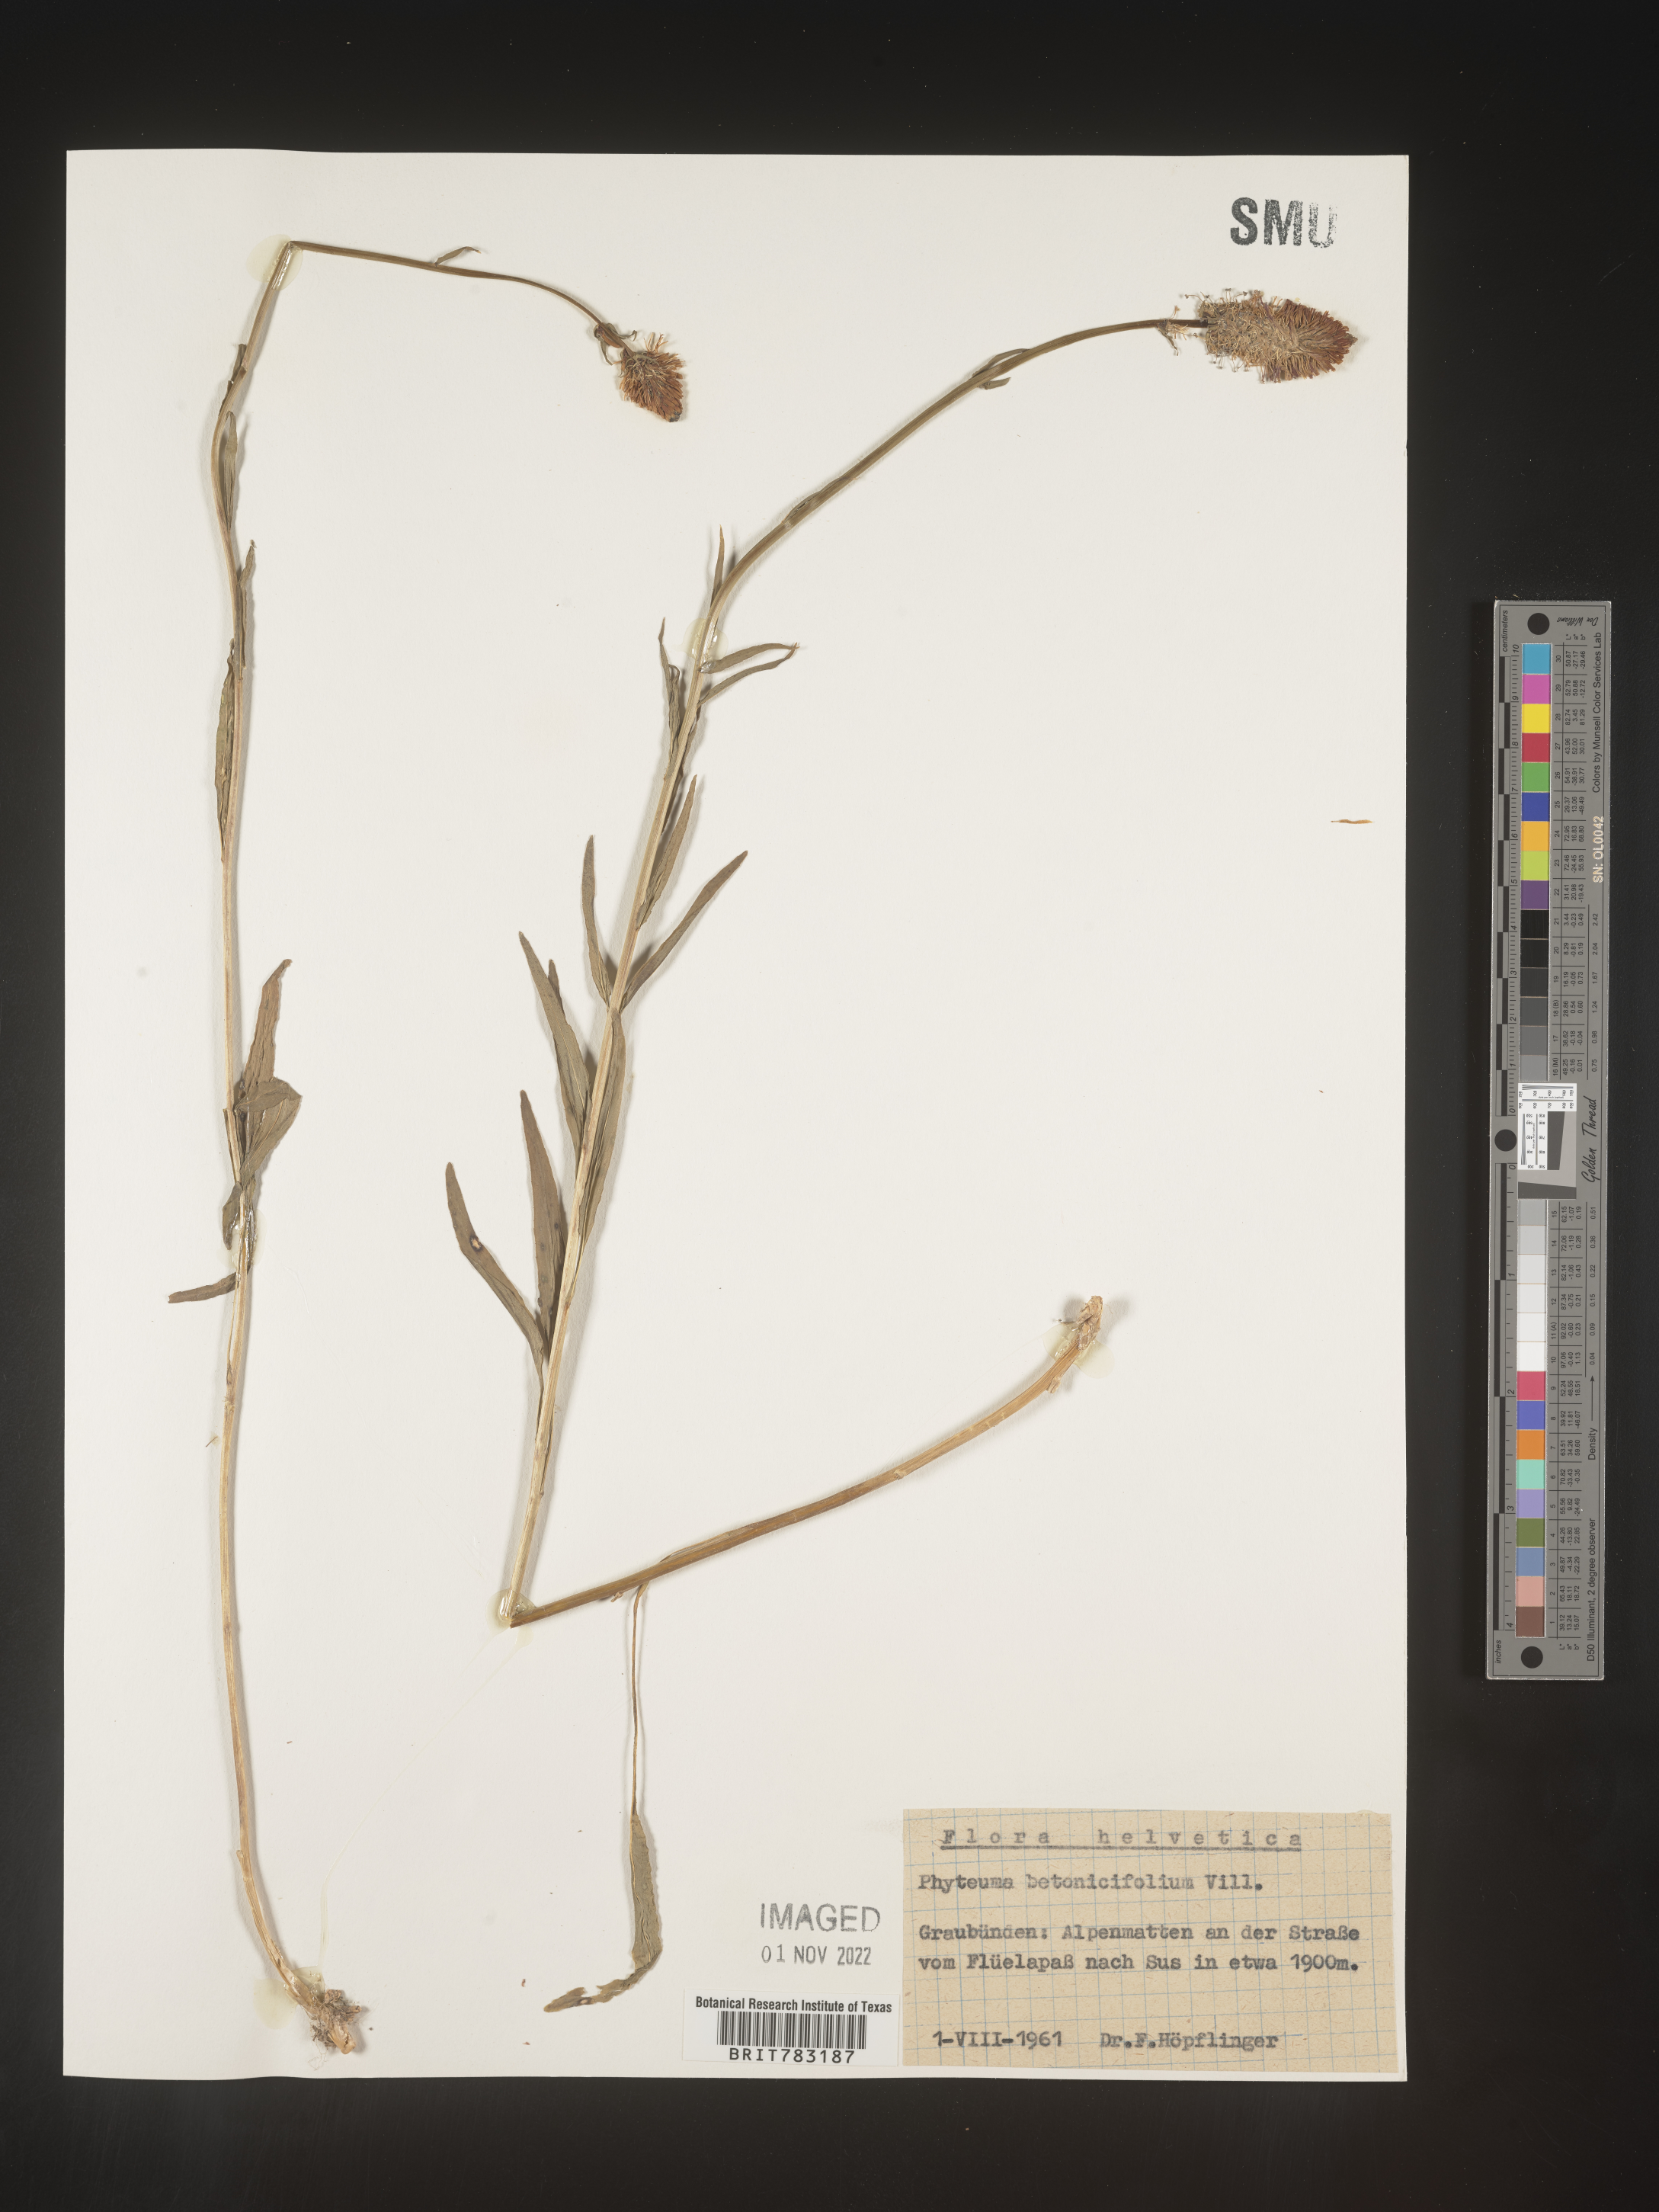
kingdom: Plantae
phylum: Tracheophyta
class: Magnoliopsida
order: Asterales
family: Campanulaceae
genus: Phyteuma
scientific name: Phyteuma
